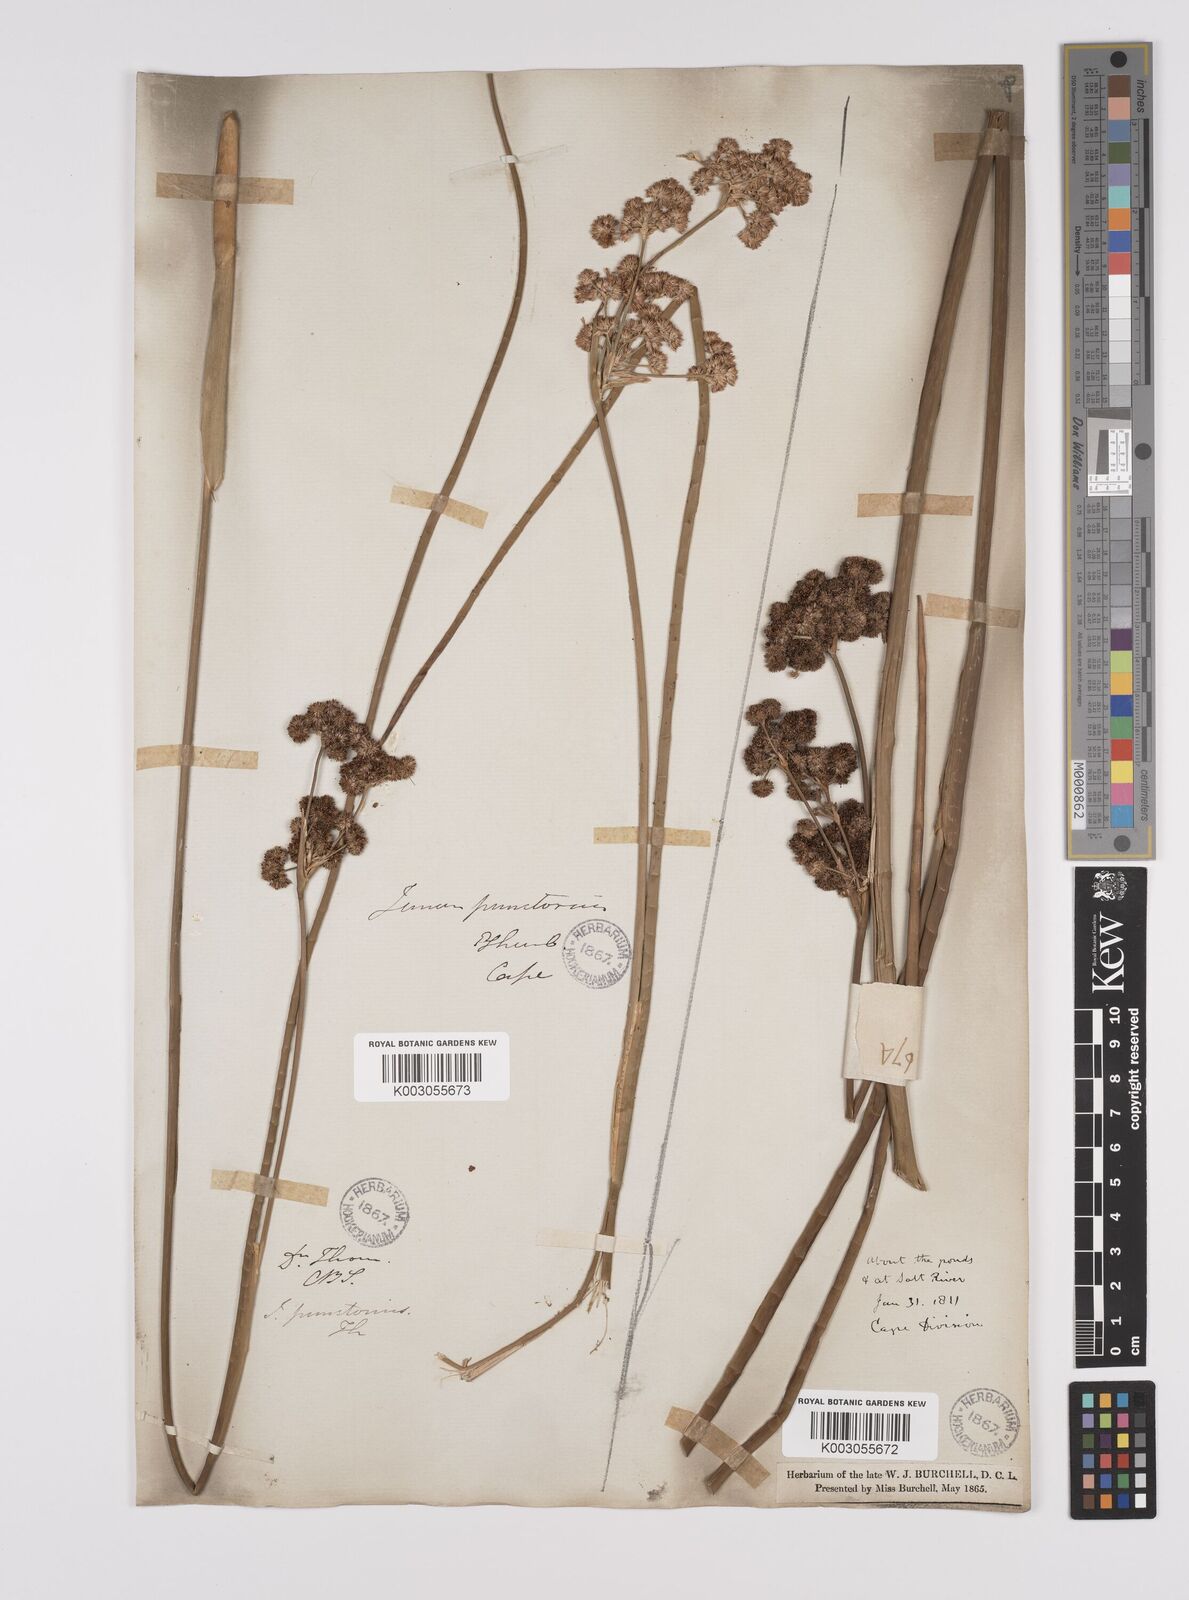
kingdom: Plantae
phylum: Tracheophyta
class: Liliopsida
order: Poales
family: Juncaceae
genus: Juncus
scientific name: Juncus punctorius
